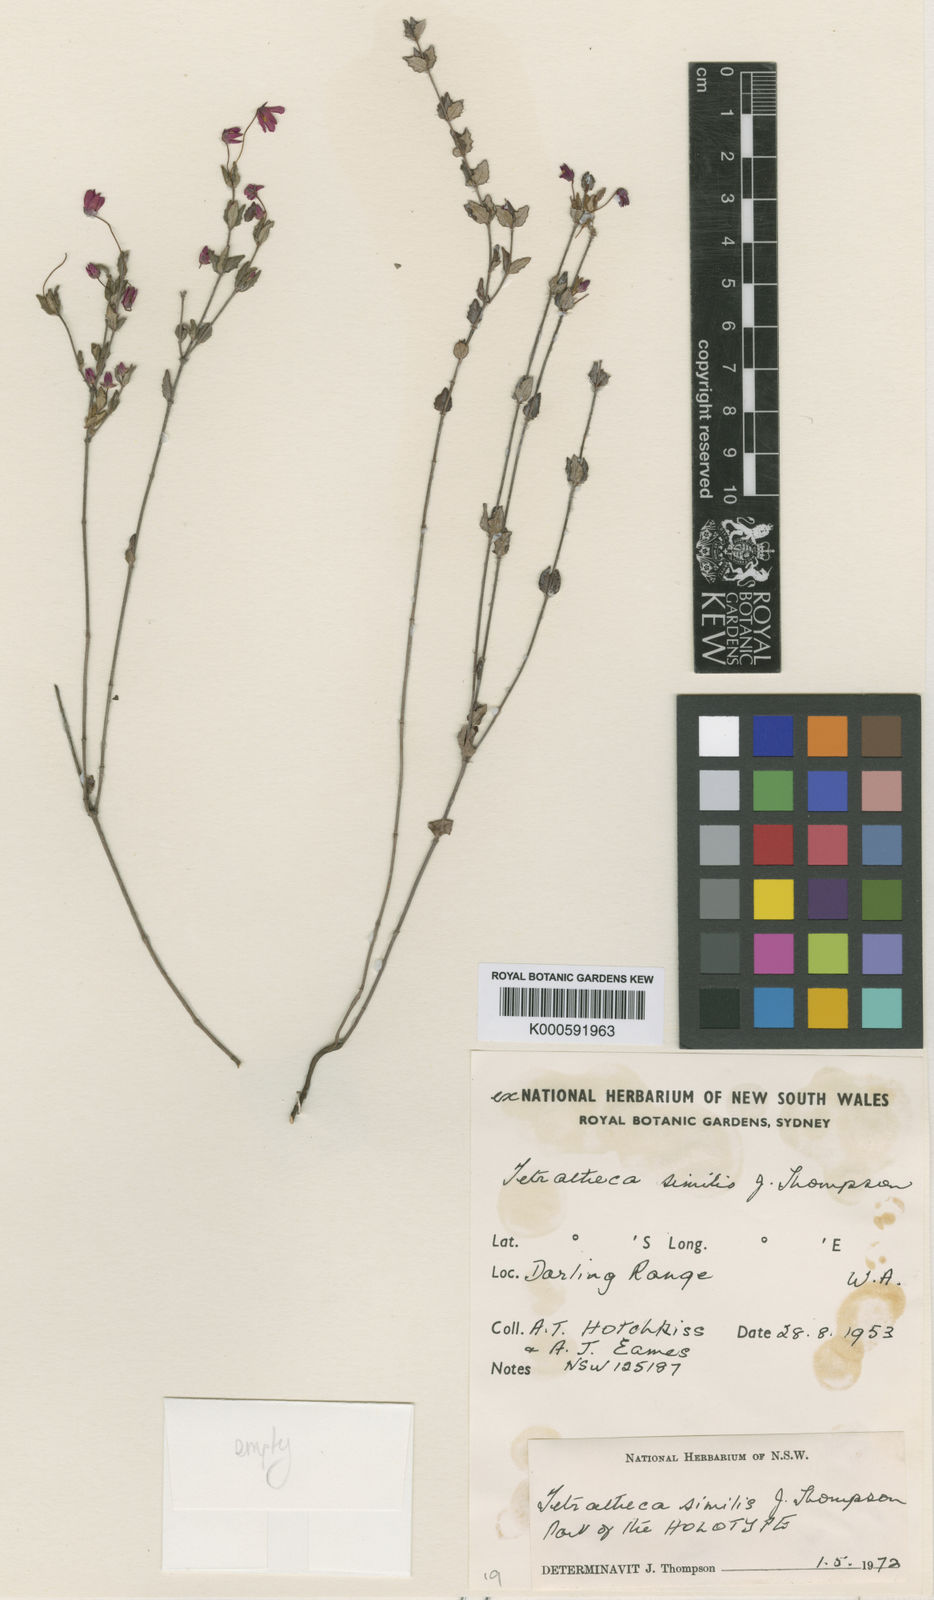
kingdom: Plantae
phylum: Tracheophyta
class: Magnoliopsida
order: Oxalidales
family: Elaeocarpaceae
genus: Tetratheca
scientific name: Tetratheca similis
